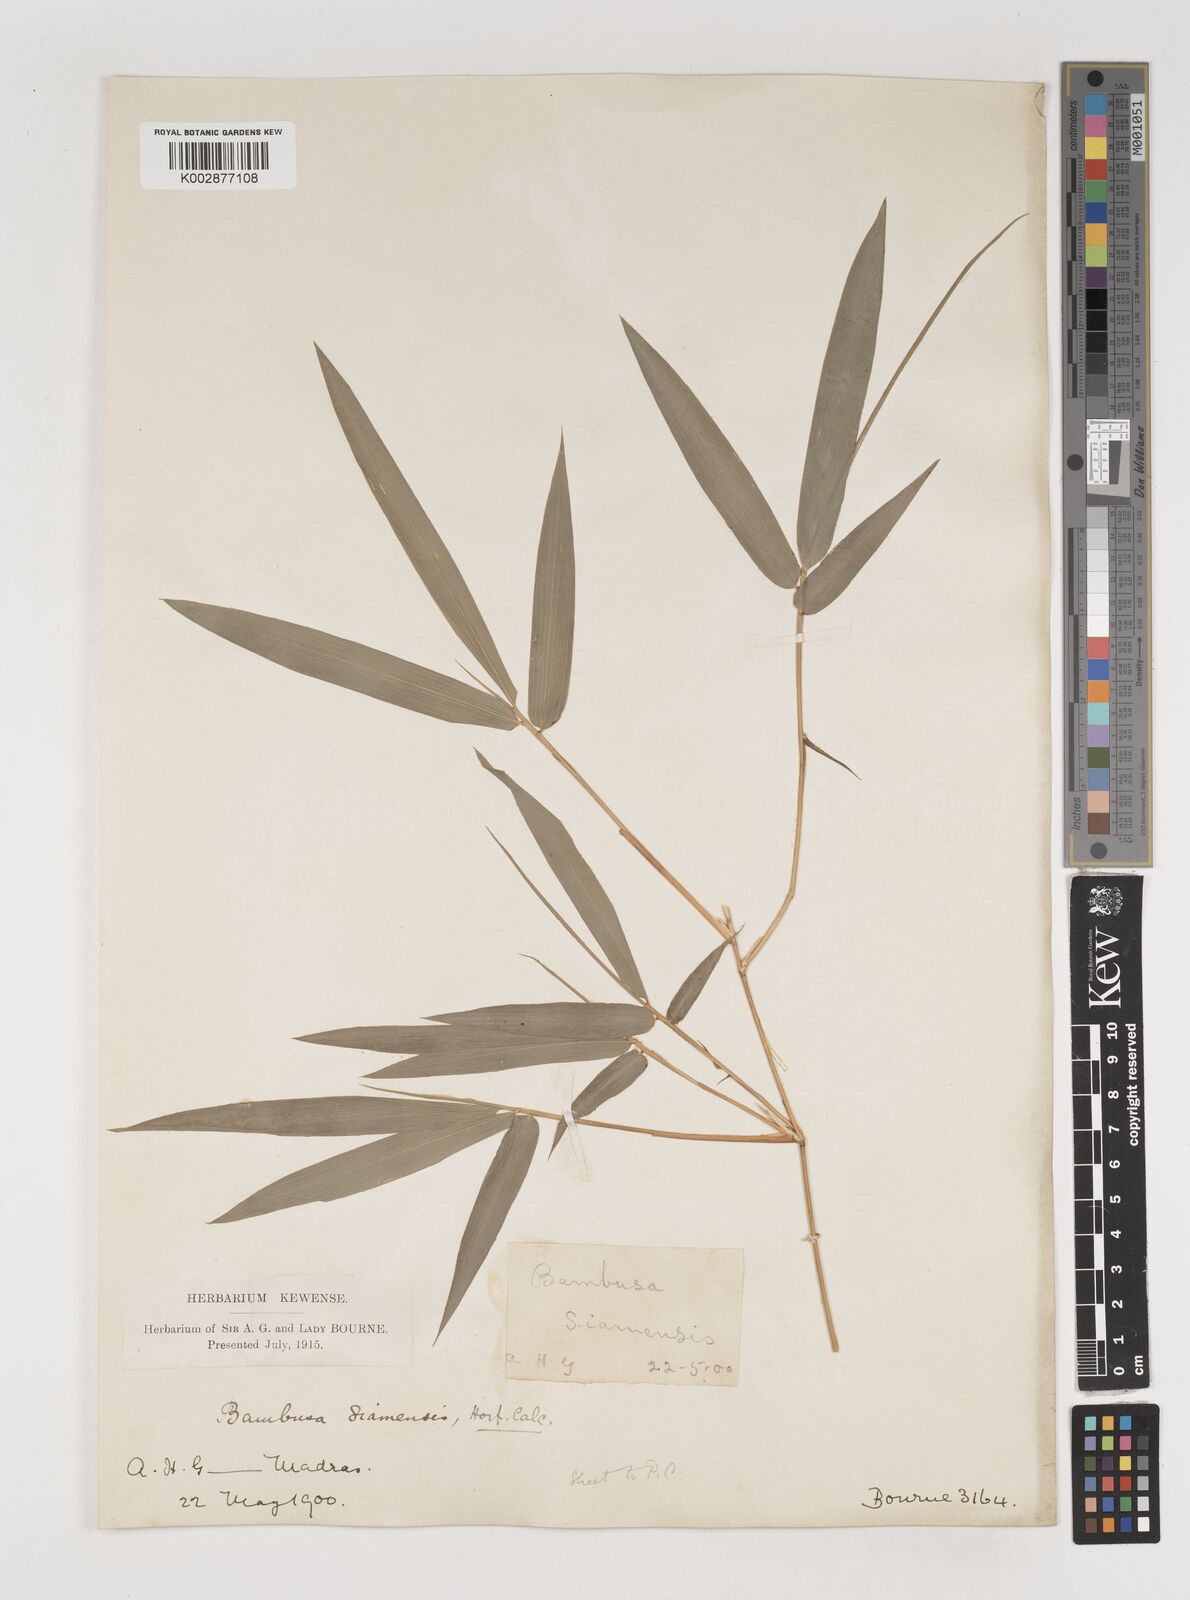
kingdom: Plantae
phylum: Tracheophyta
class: Liliopsida
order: Poales
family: Poaceae
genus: Bambusa
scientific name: Bambusa
